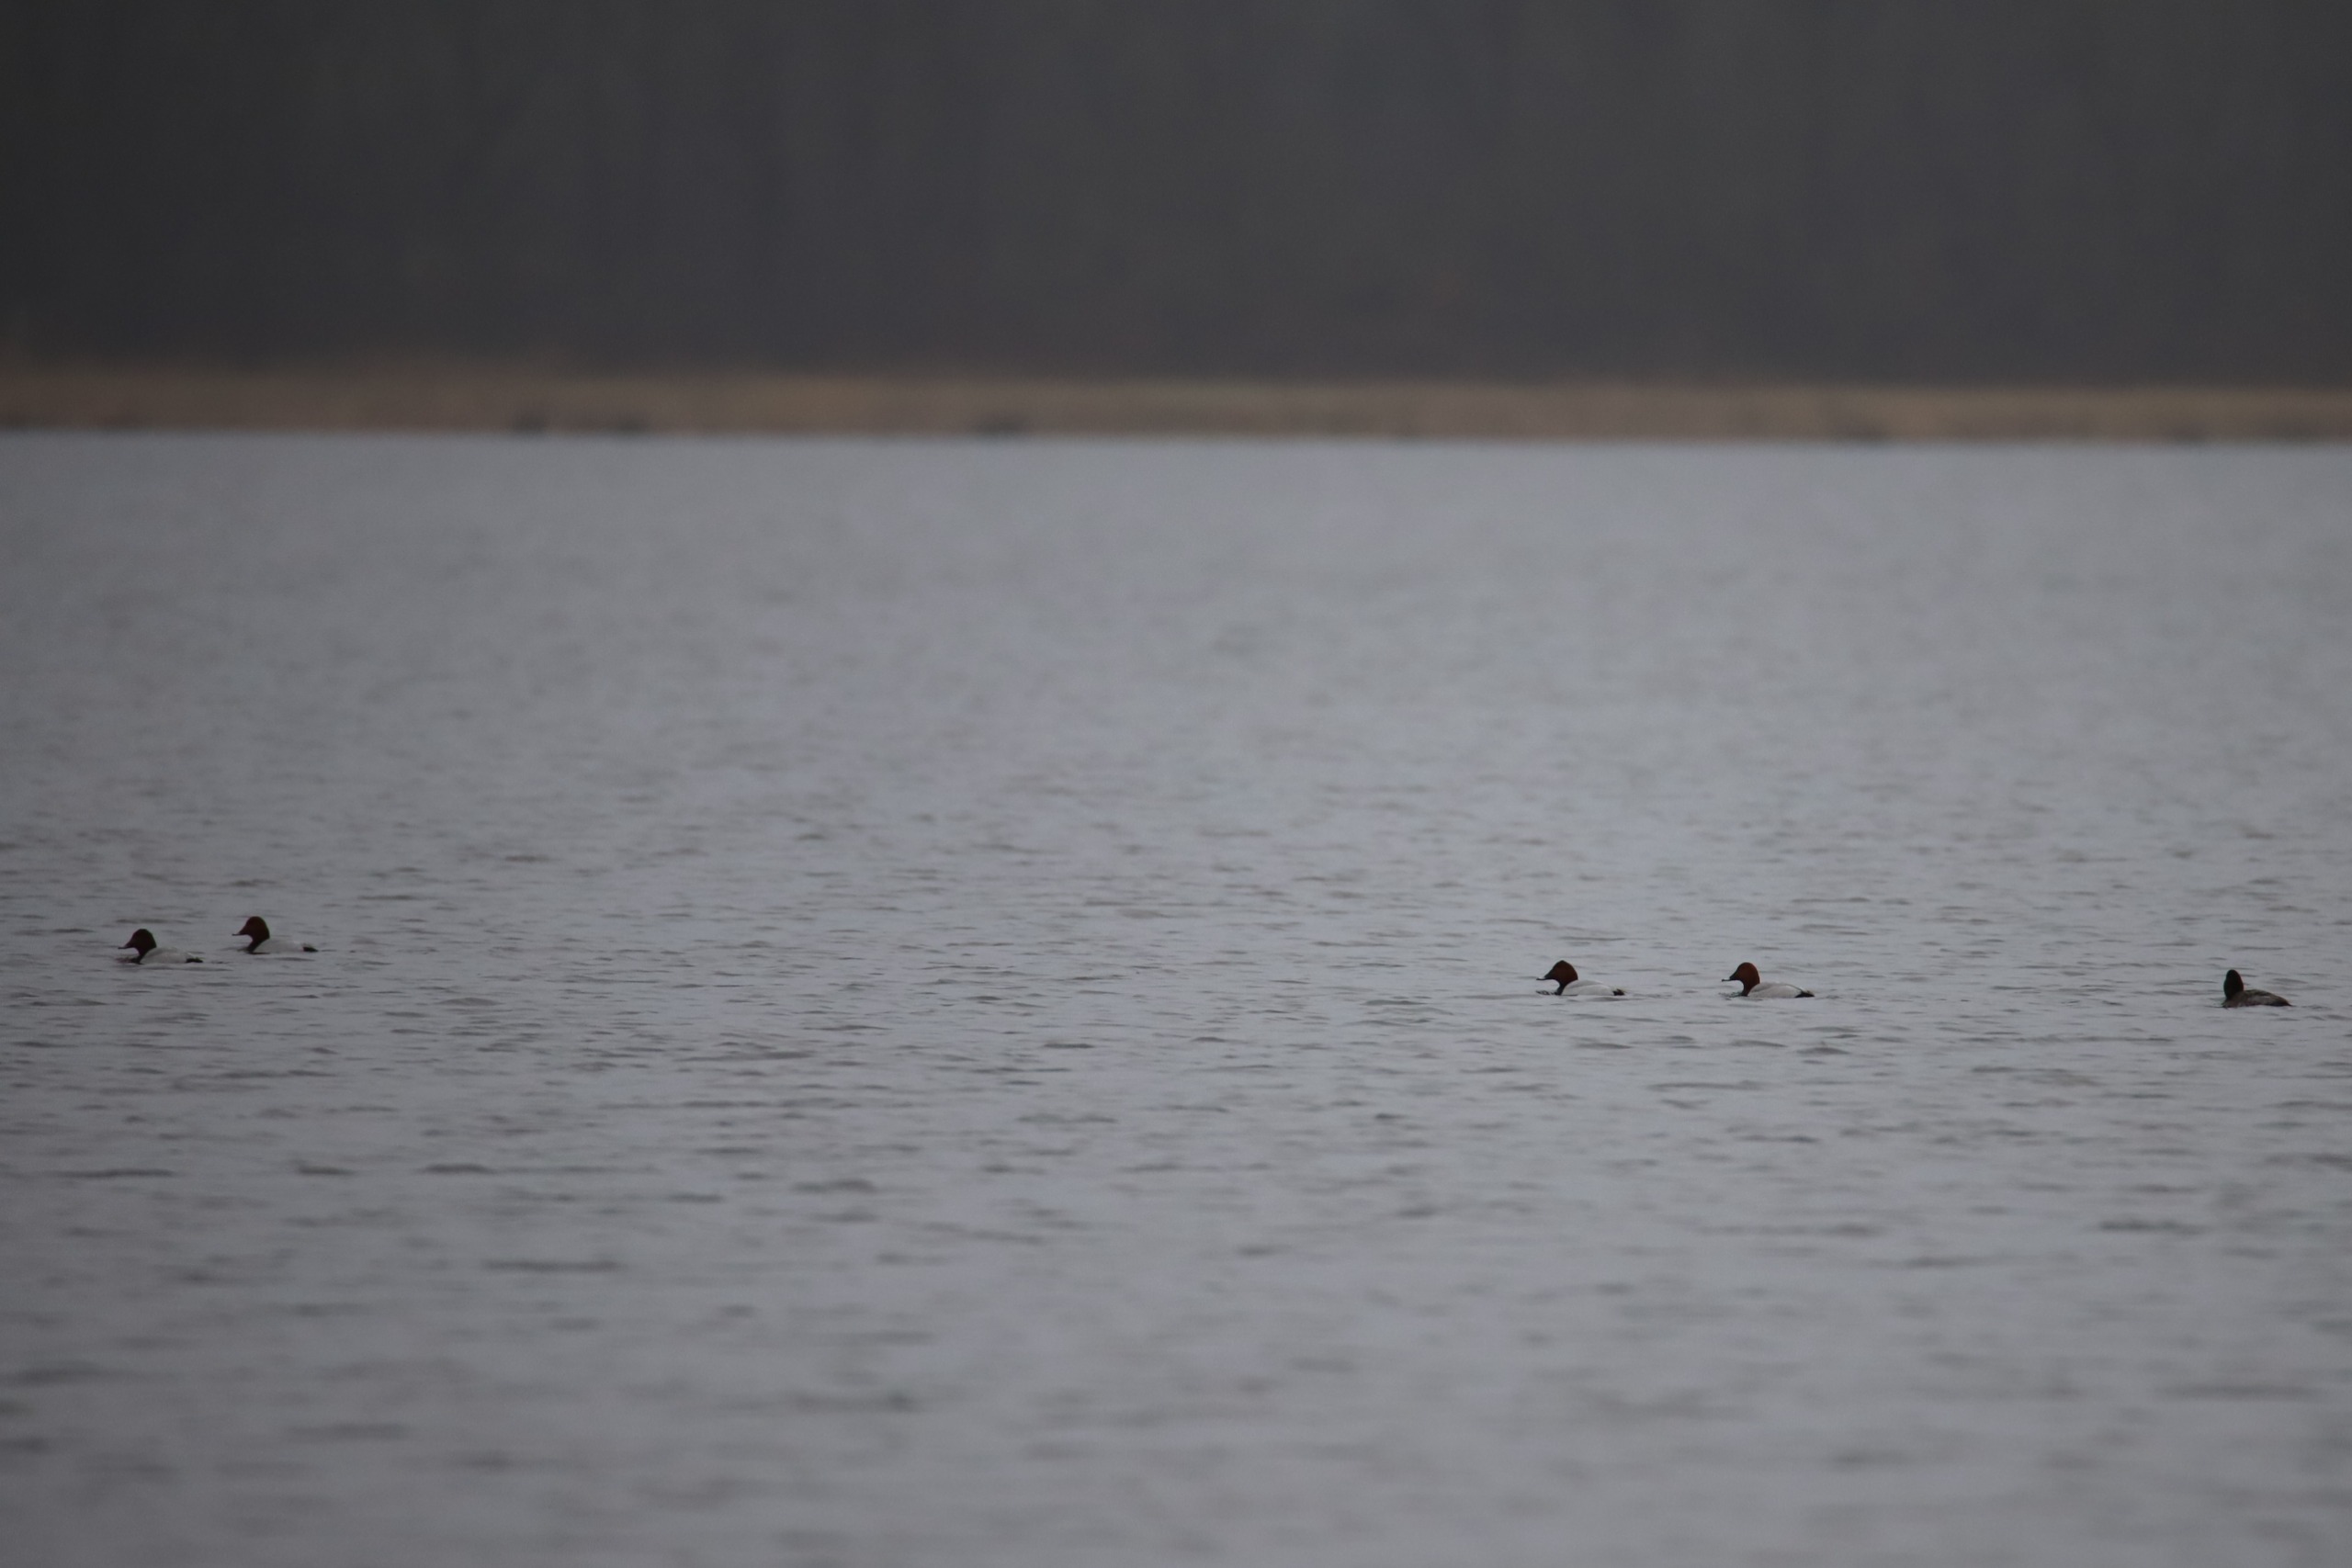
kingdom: Animalia
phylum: Chordata
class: Aves
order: Anseriformes
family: Anatidae
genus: Aythya
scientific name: Aythya ferina
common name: Taffeland
